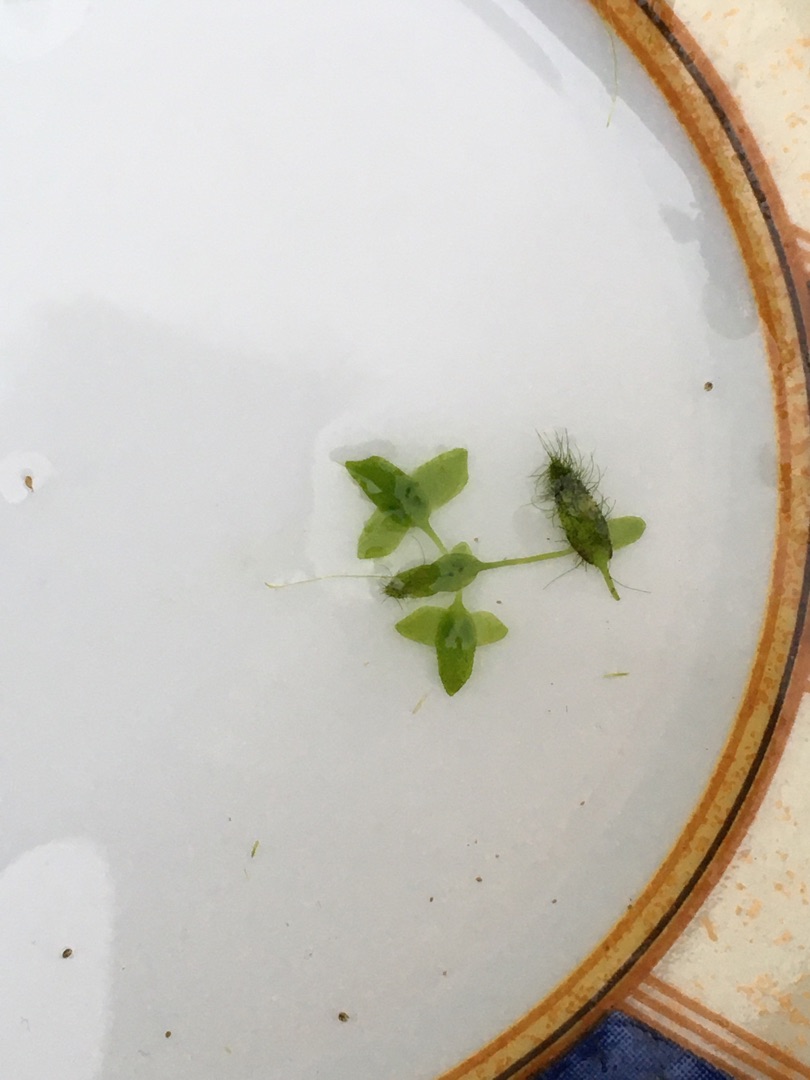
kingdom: Plantae
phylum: Tracheophyta
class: Liliopsida
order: Alismatales
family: Araceae
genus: Lemna
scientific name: Lemna trisulca
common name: Kors-andemad
